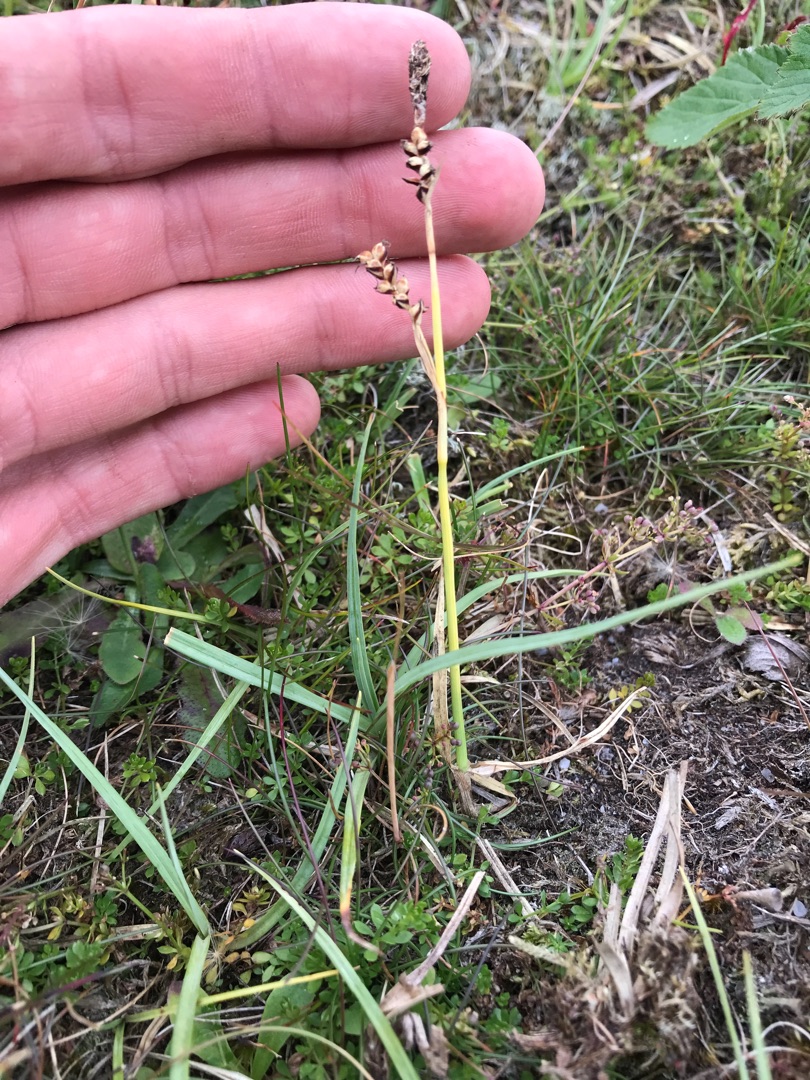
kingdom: Plantae
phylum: Tracheophyta
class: Liliopsida
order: Poales
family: Cyperaceae
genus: Carex
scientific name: Carex panicea
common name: Hirse-star
